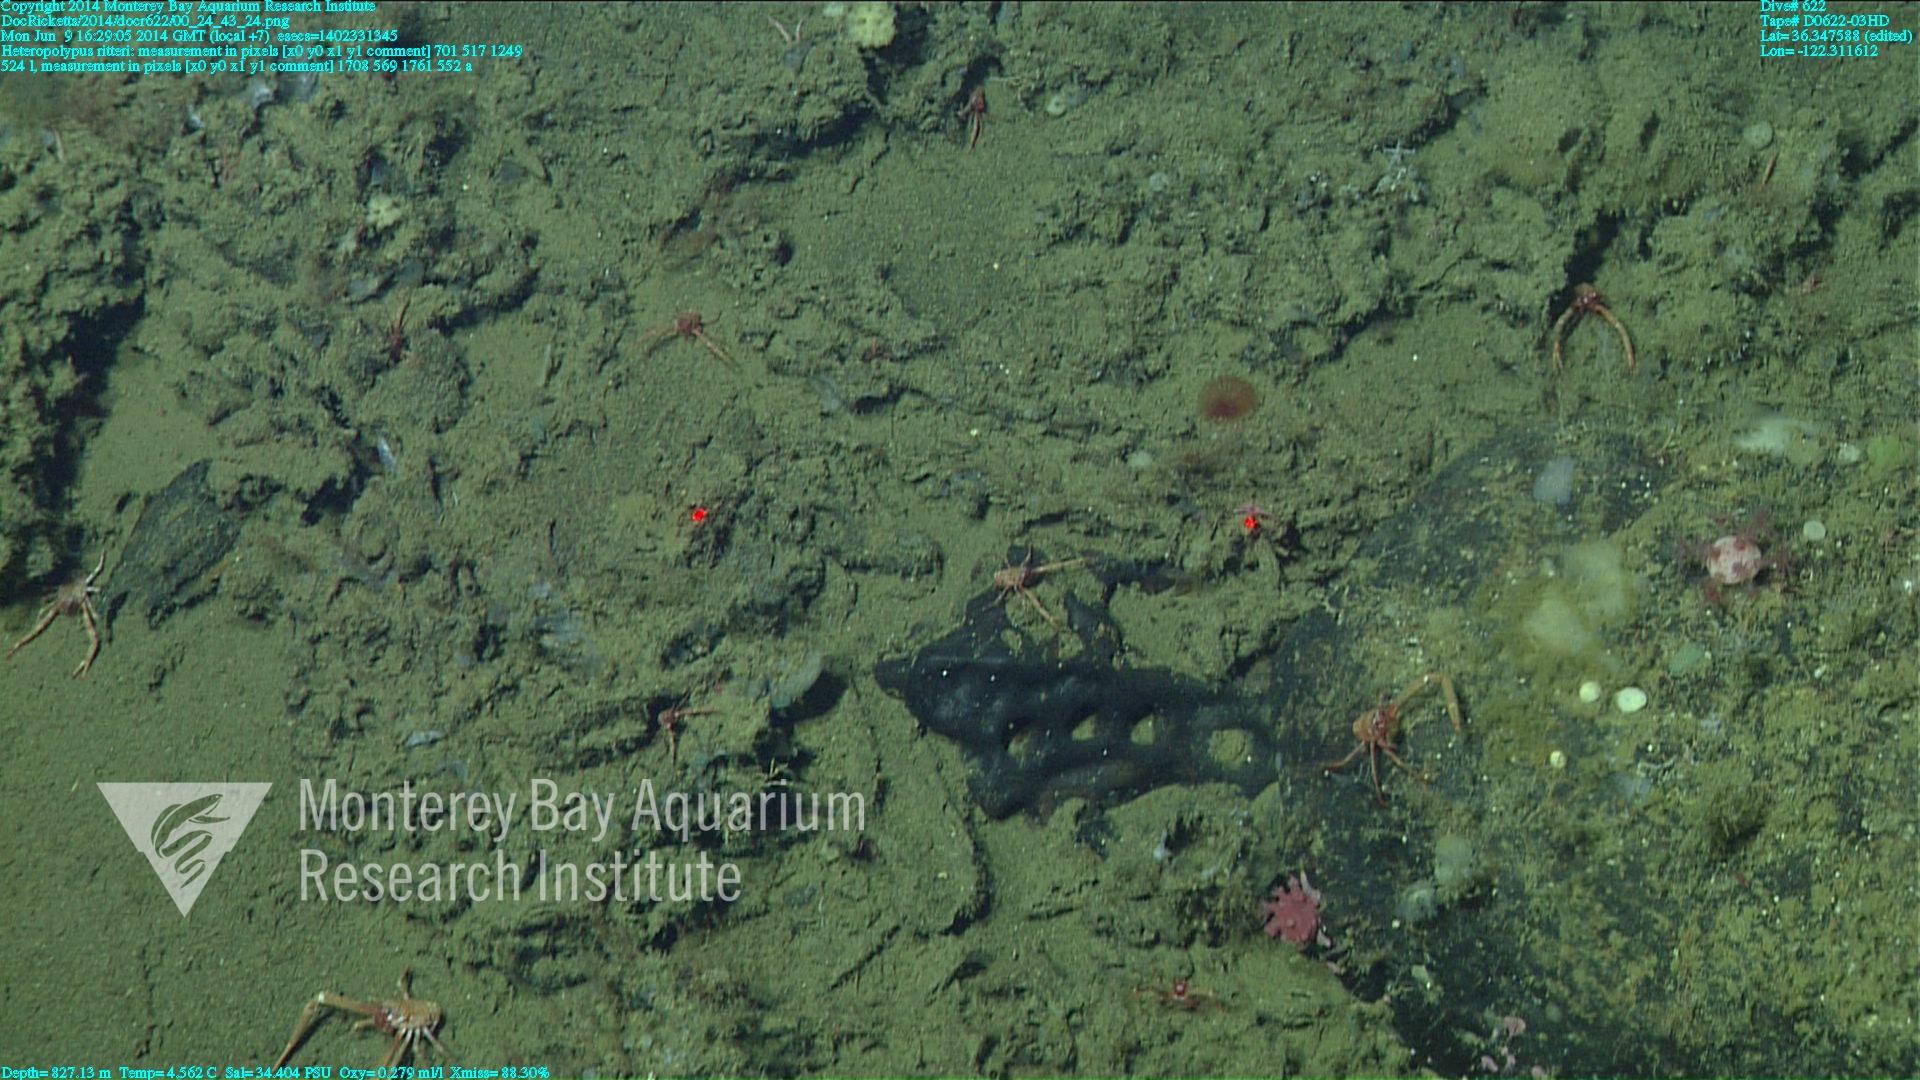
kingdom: Animalia
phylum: Cnidaria
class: Anthozoa
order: Scleralcyonacea
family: Coralliidae
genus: Heteropolypus
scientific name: Heteropolypus ritteri
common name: Ritter's soft coral
